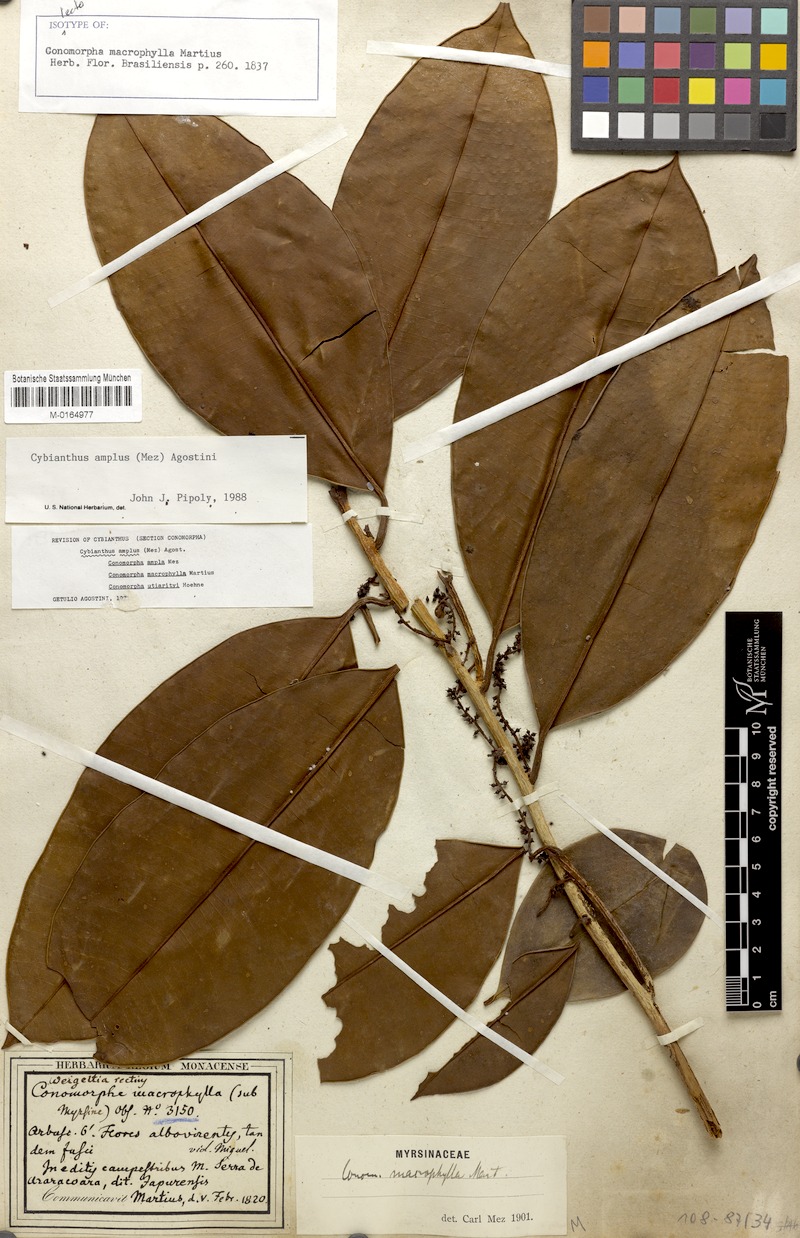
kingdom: Plantae
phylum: Tracheophyta
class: Magnoliopsida
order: Ericales
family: Primulaceae
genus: Cybianthus
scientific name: Cybianthus amplus
